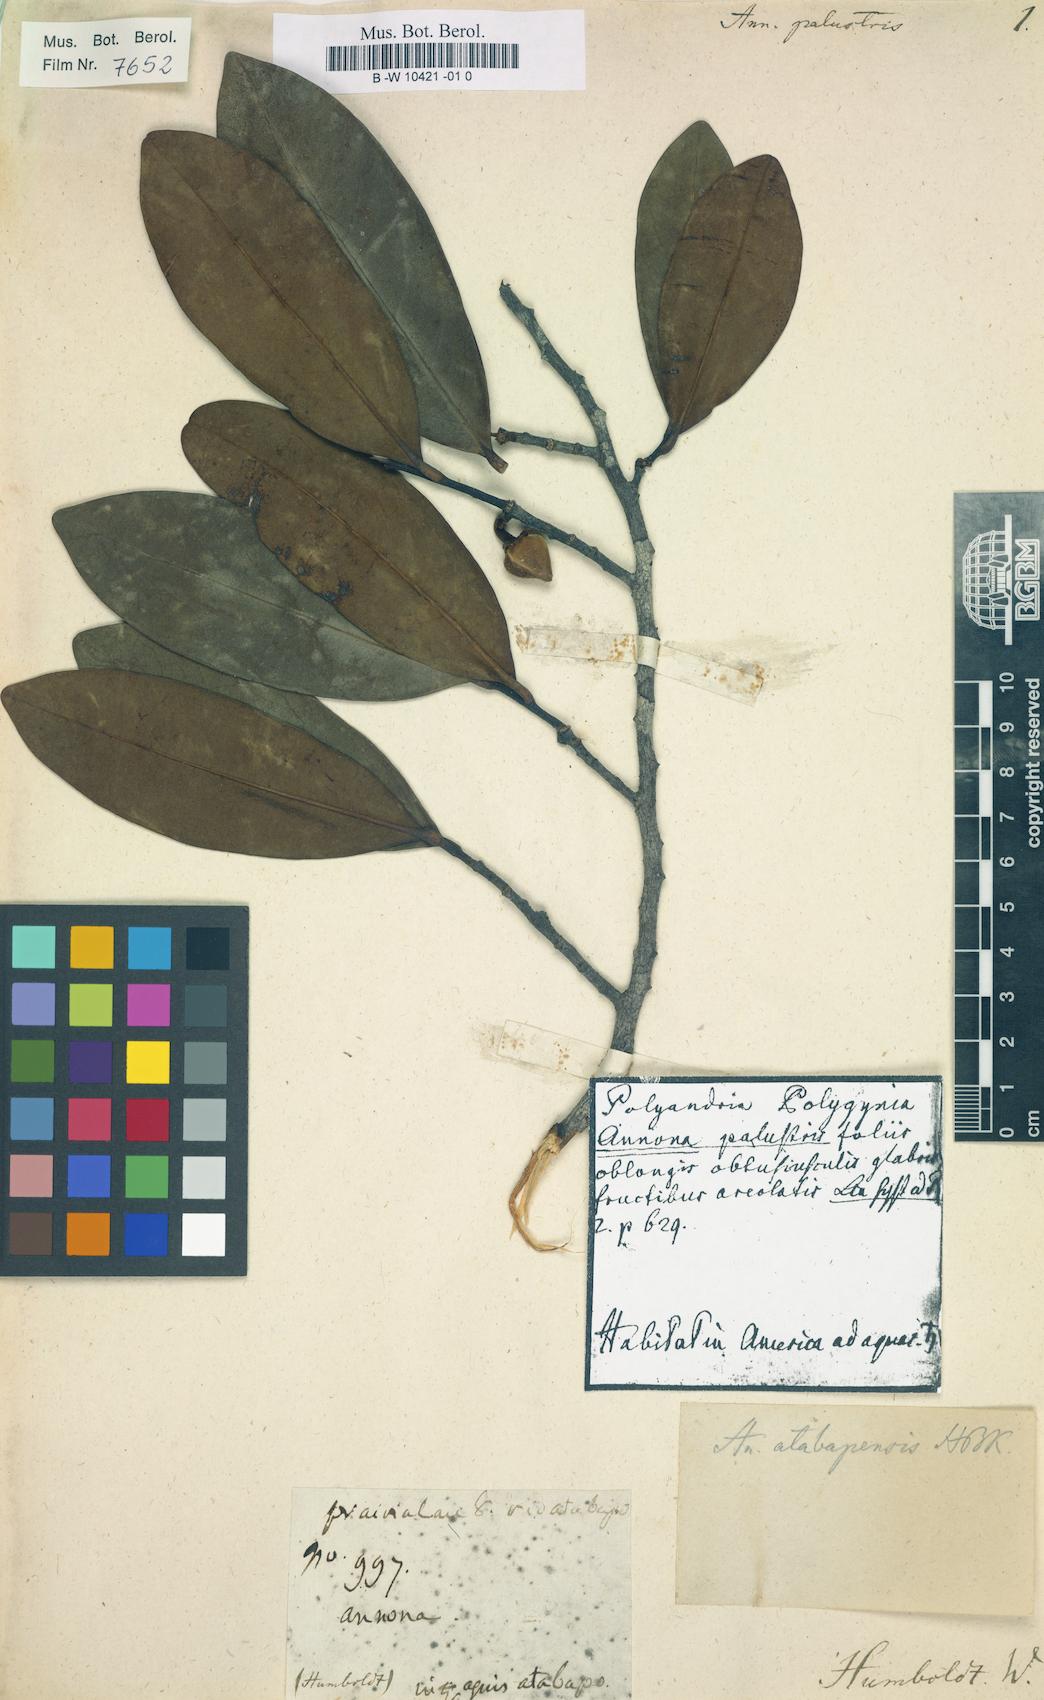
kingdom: Plantae
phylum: Tracheophyta
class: Magnoliopsida
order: Magnoliales
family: Annonaceae
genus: Annona
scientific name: Annona glabra
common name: Monkey apple
